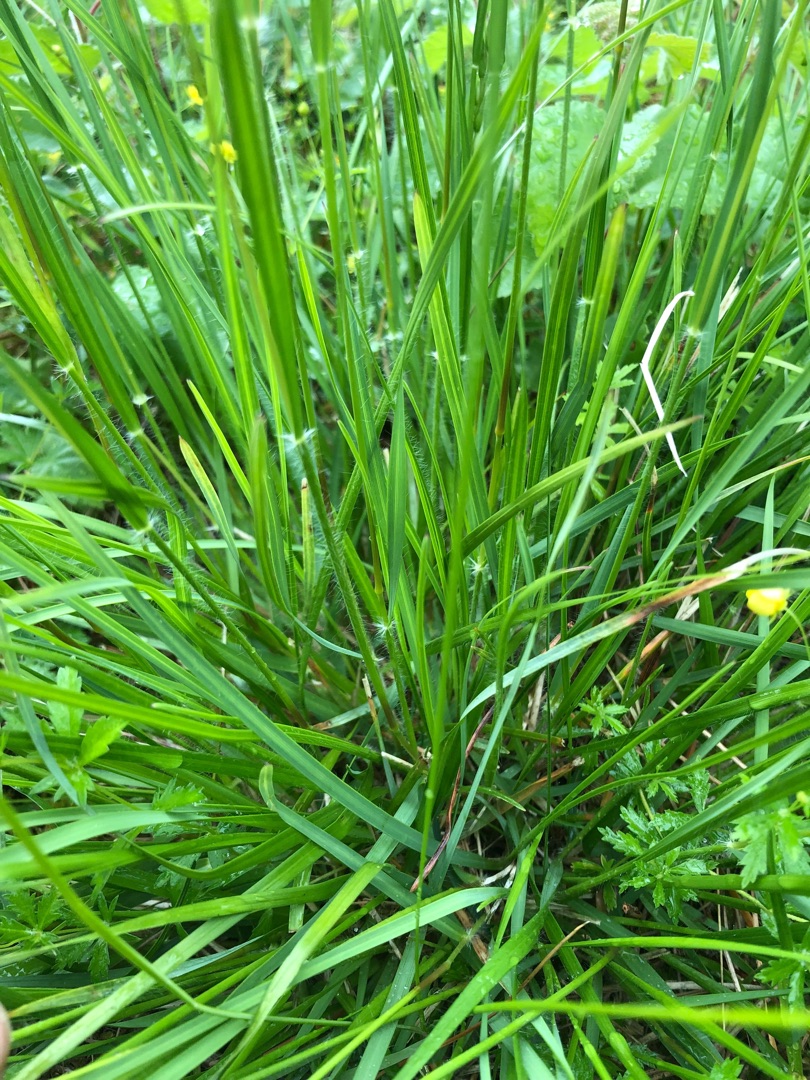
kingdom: Plantae
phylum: Tracheophyta
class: Liliopsida
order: Poales
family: Poaceae
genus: Danthonia
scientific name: Danthonia decumbens
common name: Tandbælg
